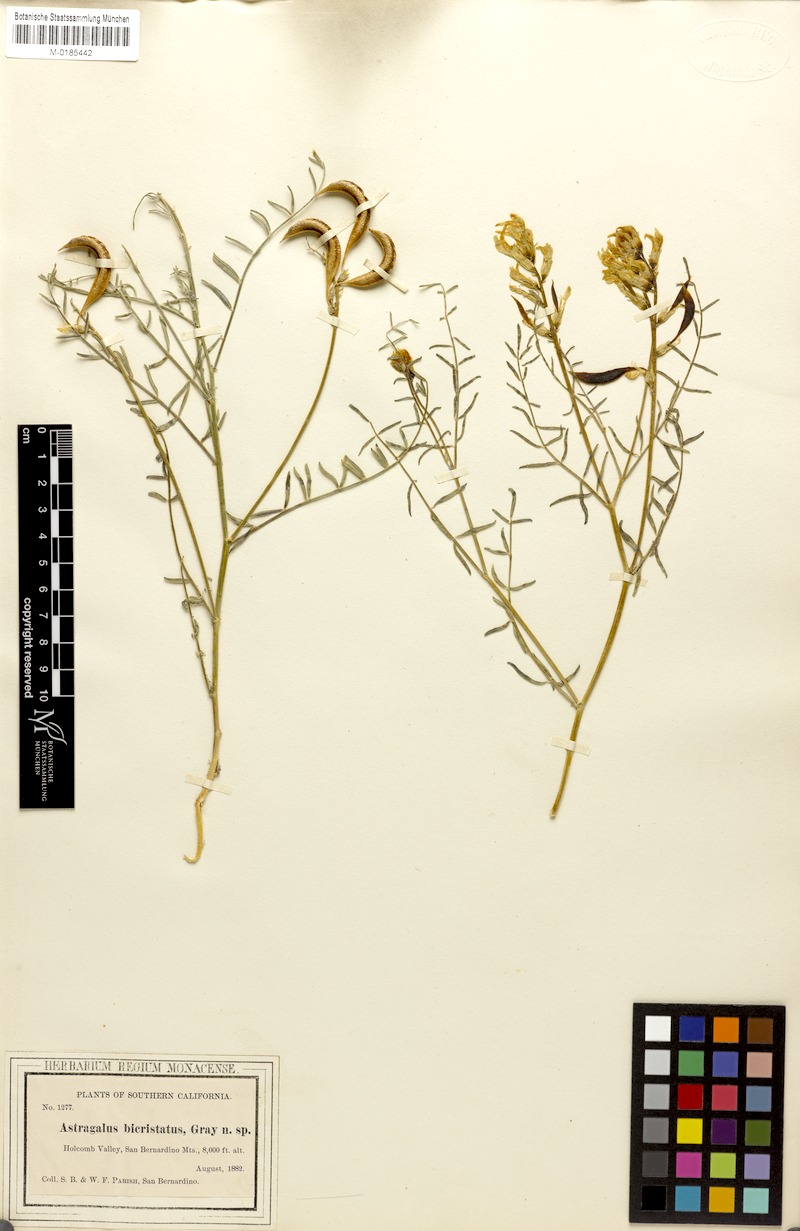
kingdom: Plantae
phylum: Tracheophyta
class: Magnoliopsida
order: Fabales
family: Fabaceae
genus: Astragalus
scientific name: Astragalus bicristatus
